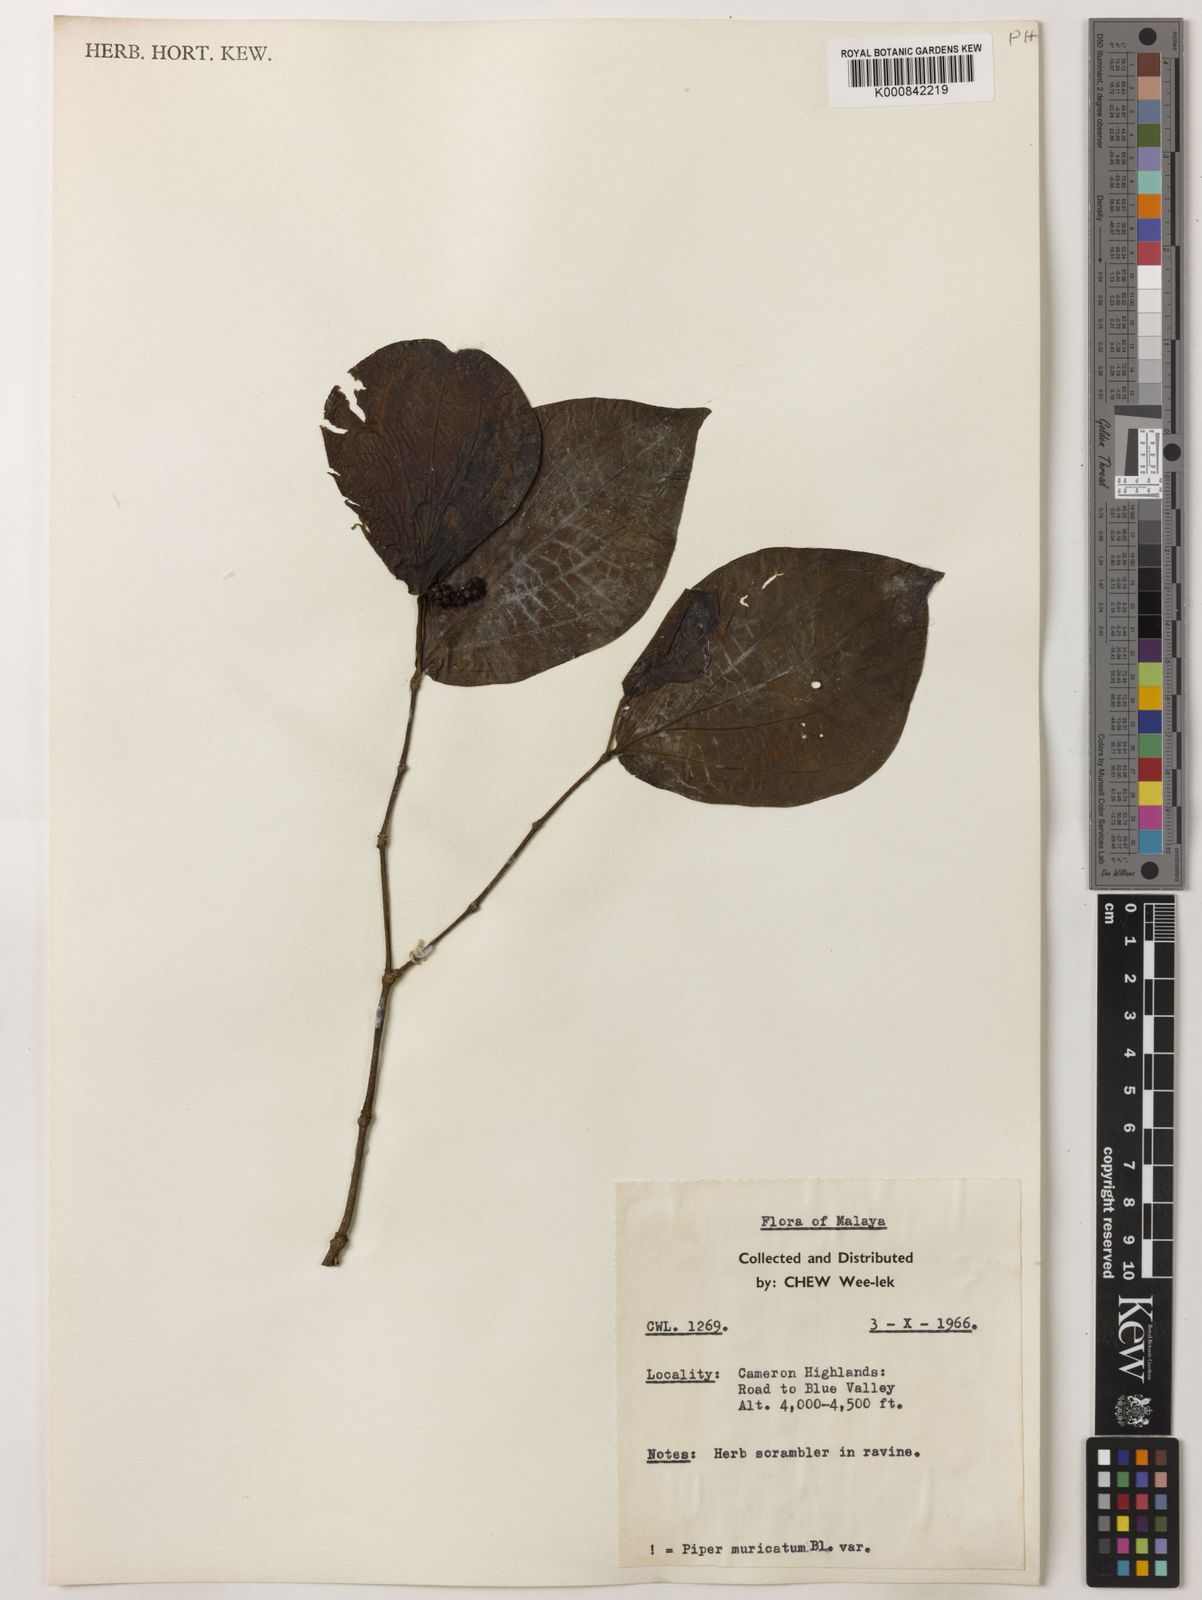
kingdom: Plantae
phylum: Tracheophyta
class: Magnoliopsida
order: Piperales
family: Piperaceae
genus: Piper
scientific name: Piper muricatum
